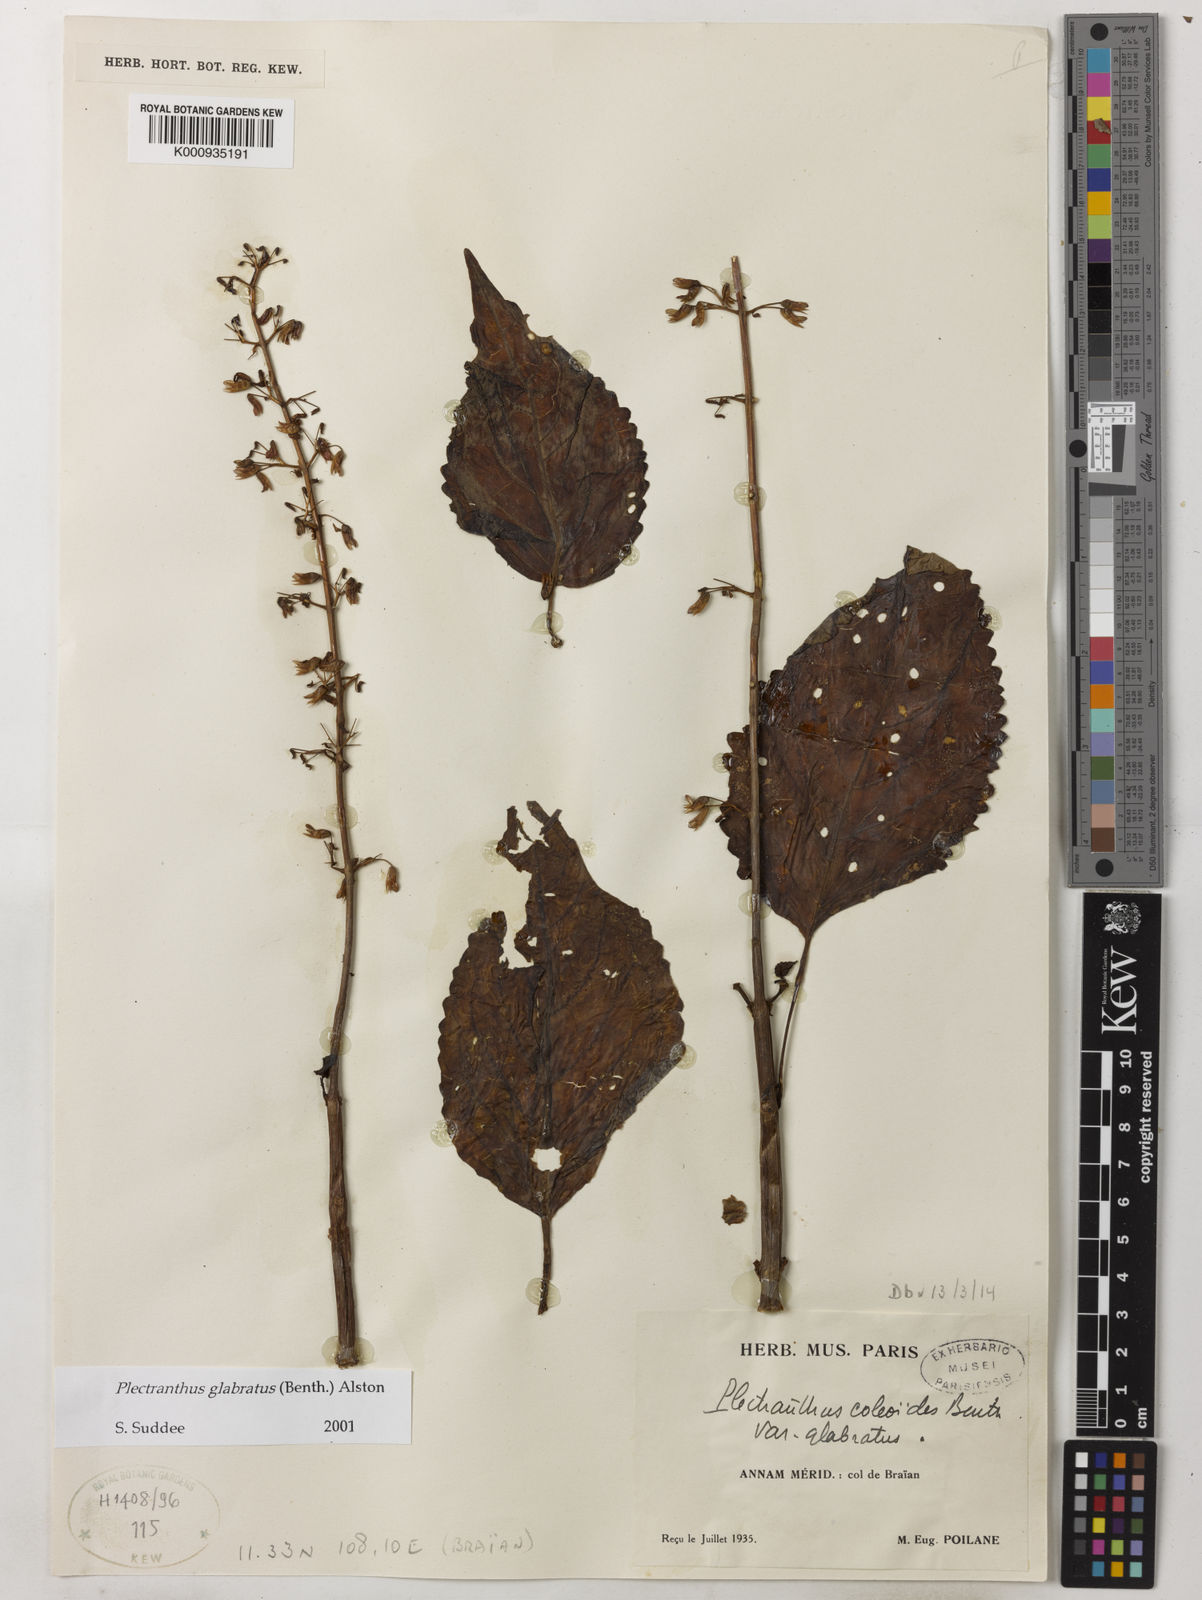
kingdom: Plantae
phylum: Tracheophyta
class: Magnoliopsida
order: Lamiales
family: Lamiaceae
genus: Coleus
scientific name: Coleus paniculatus
